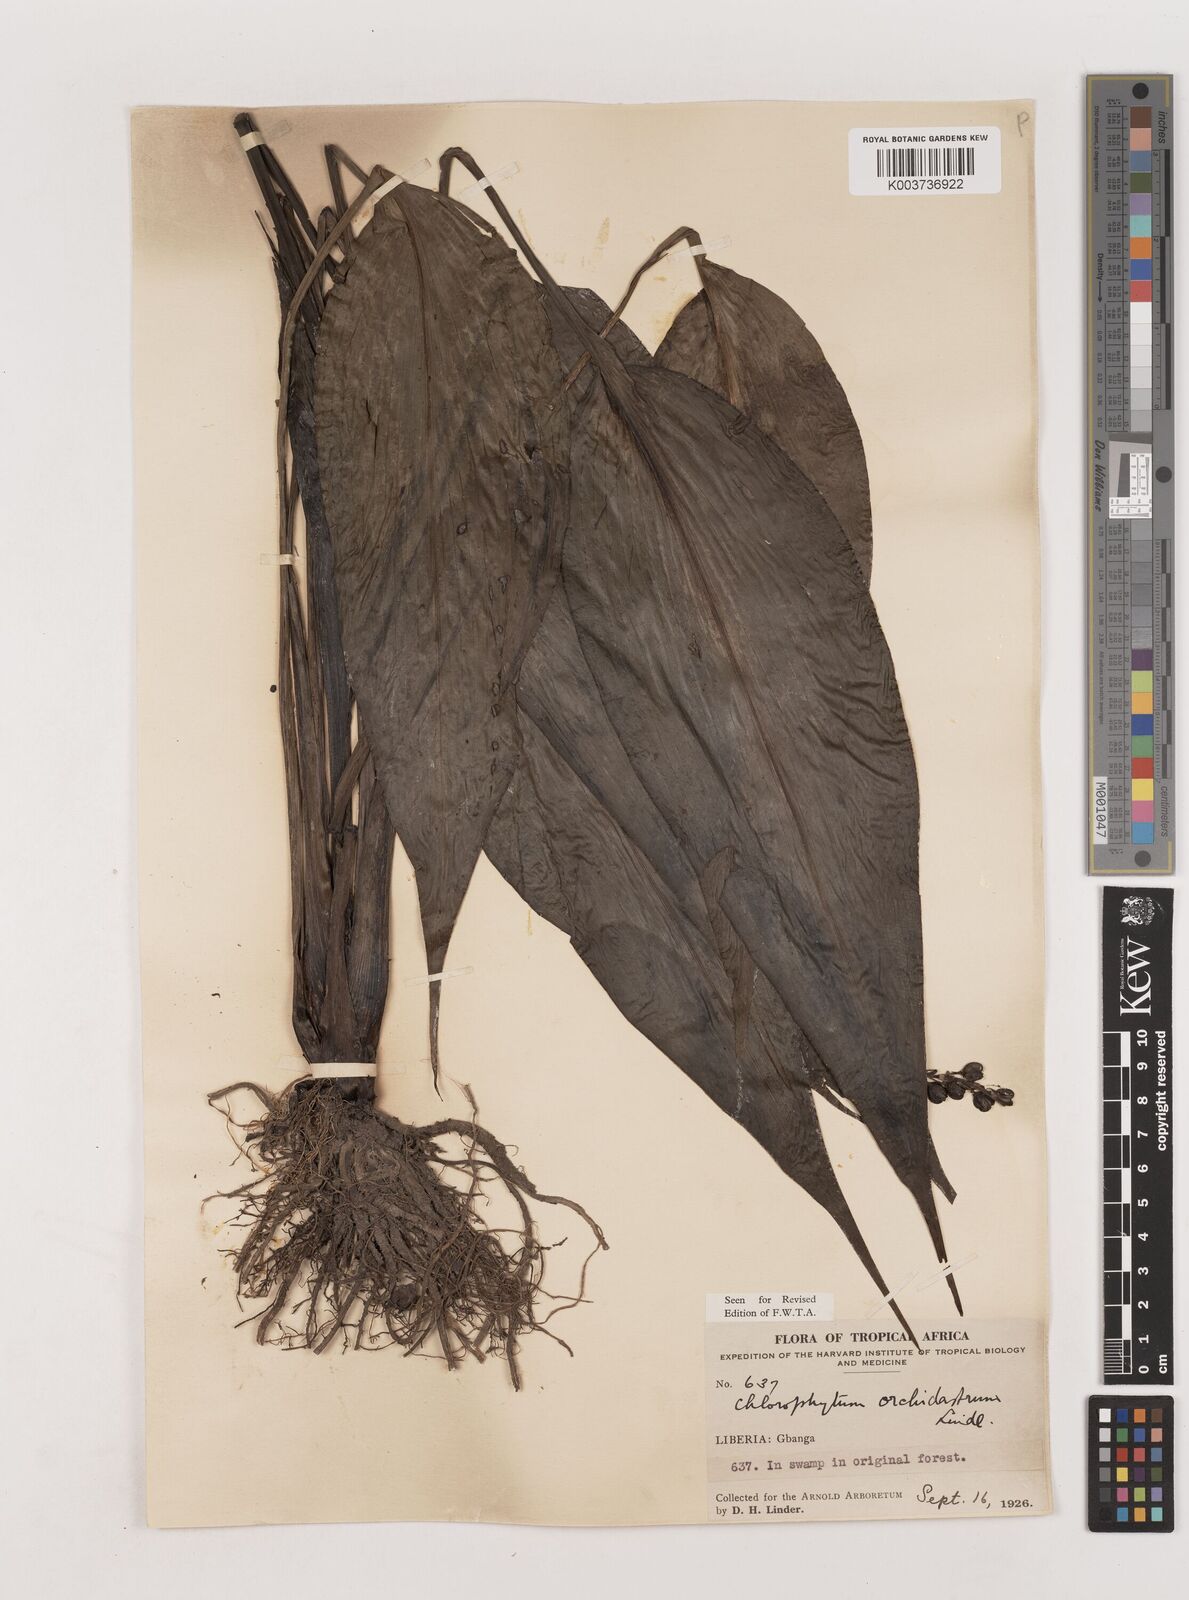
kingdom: Plantae
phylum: Tracheophyta
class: Liliopsida
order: Asparagales
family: Asparagaceae
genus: Chlorophytum
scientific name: Chlorophytum orchidastrum
